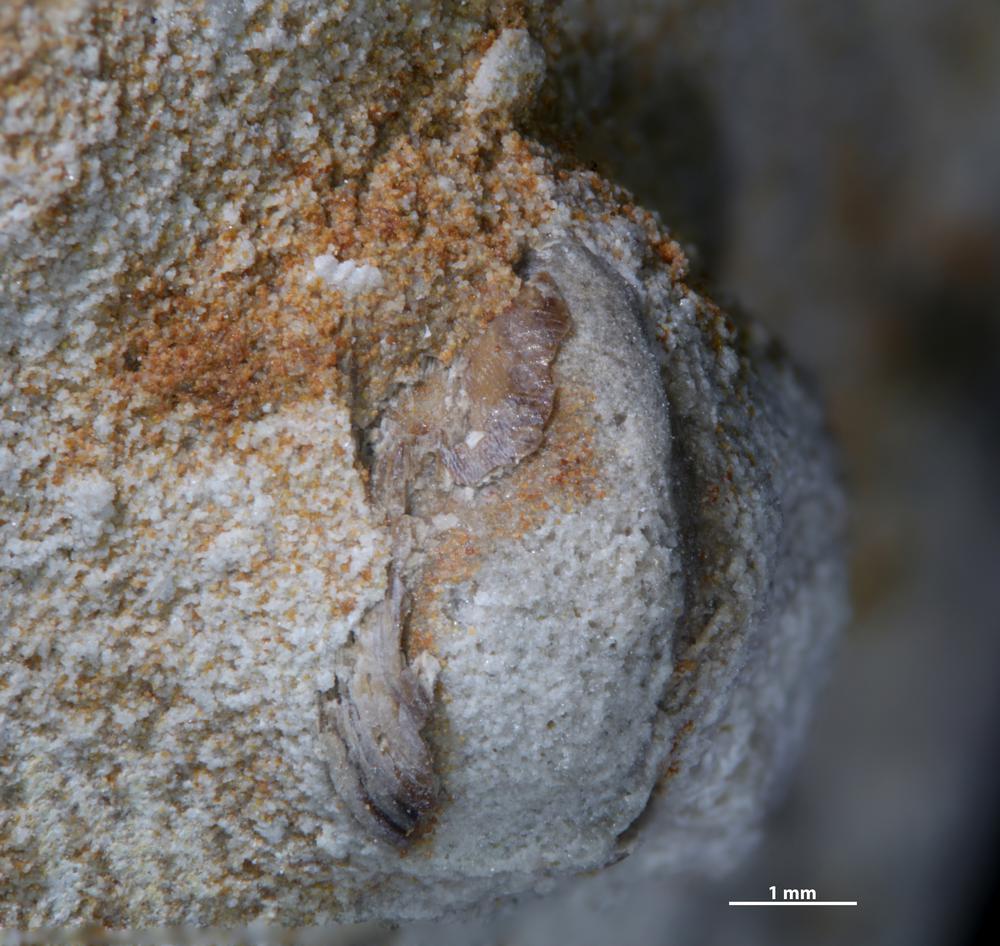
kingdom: Animalia
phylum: Brachiopoda
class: Lingulata
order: Lingulida
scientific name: Lingulida
